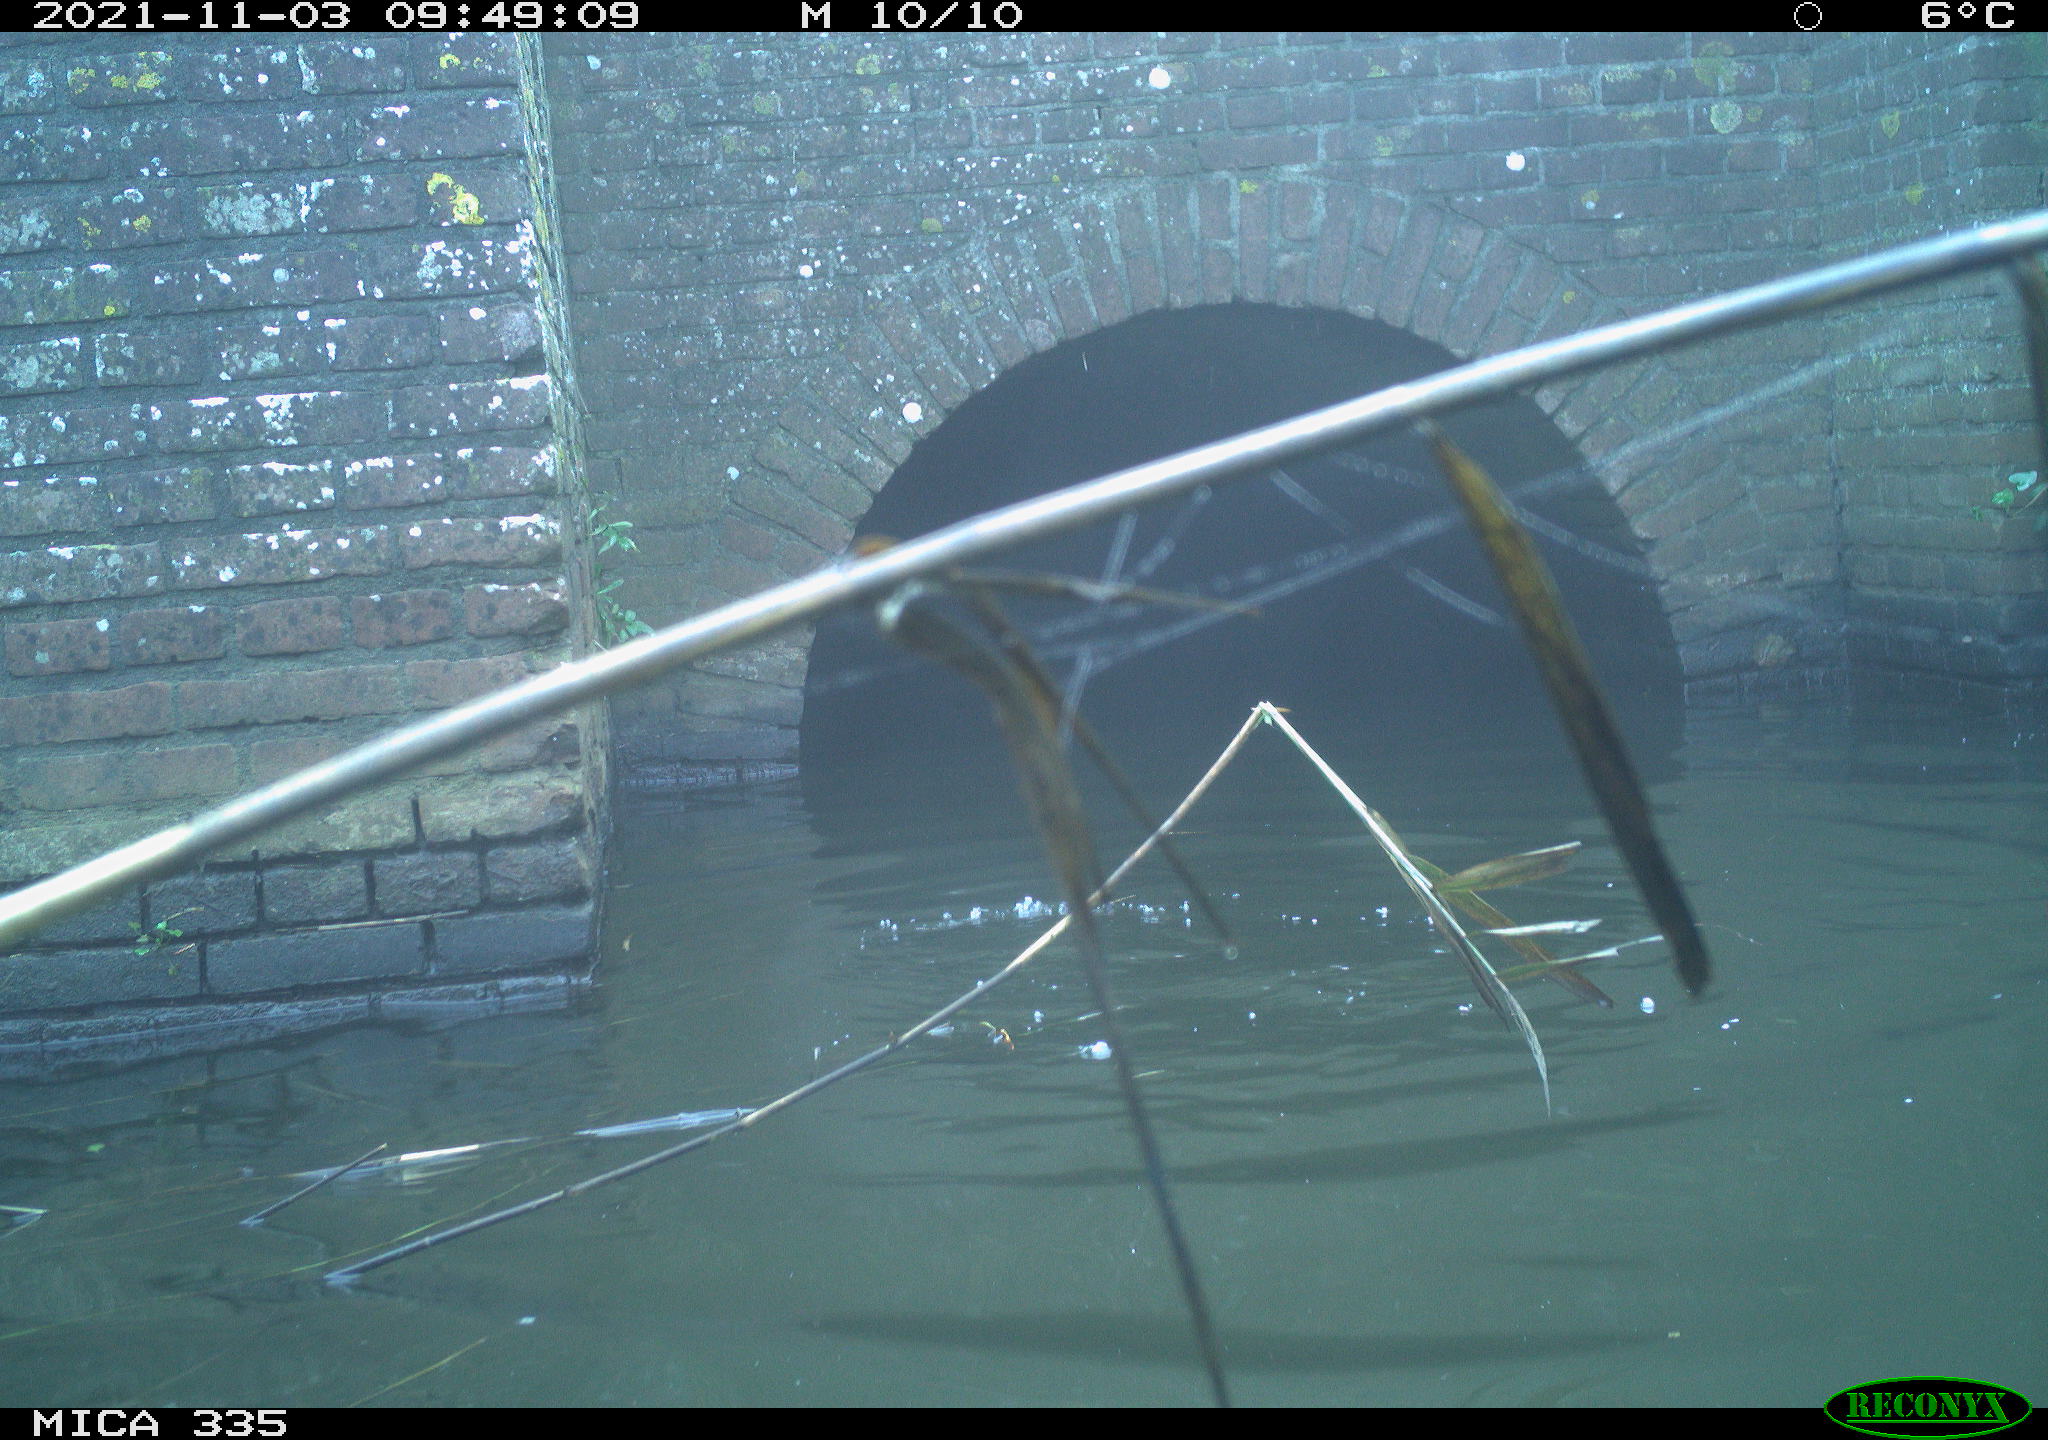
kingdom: Animalia
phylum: Chordata
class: Aves
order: Anseriformes
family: Anatidae
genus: Anas
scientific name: Anas platyrhynchos
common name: Mallard
